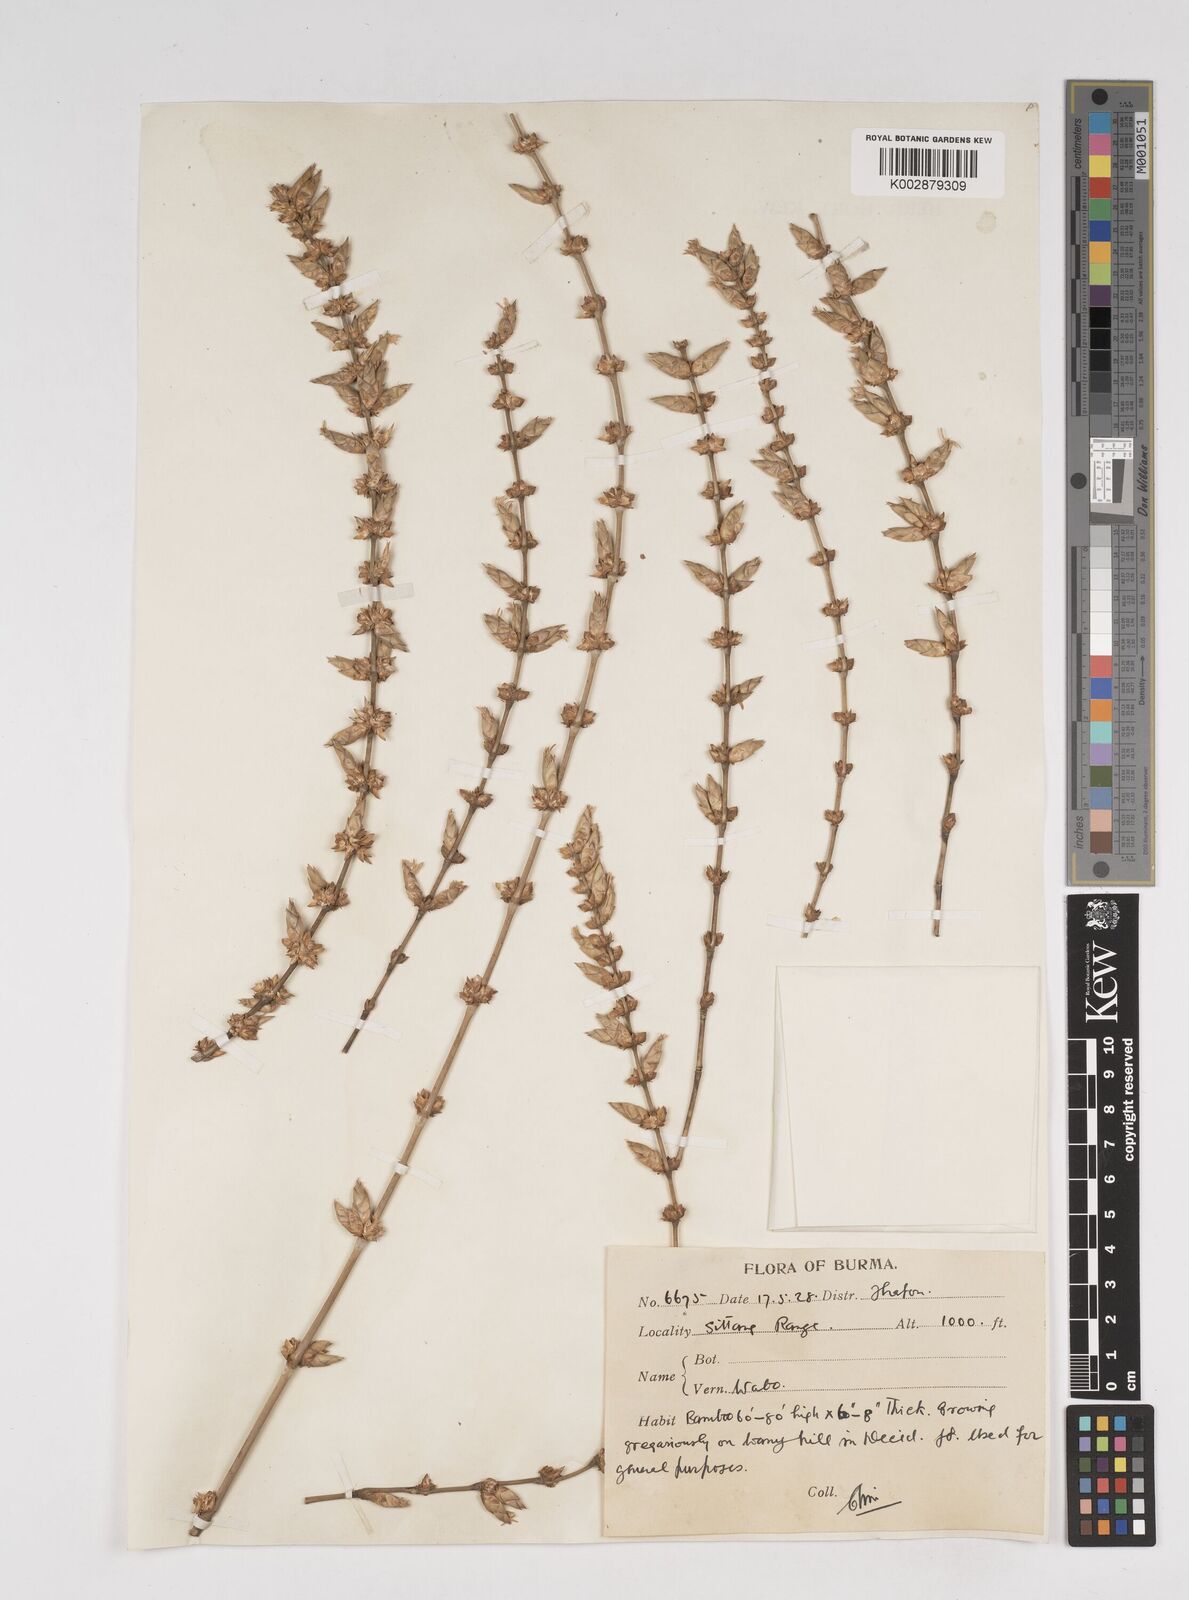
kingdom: Plantae
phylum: Tracheophyta
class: Liliopsida
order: Poales
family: Poaceae
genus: Dendrocalamus
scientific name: Dendrocalamus
